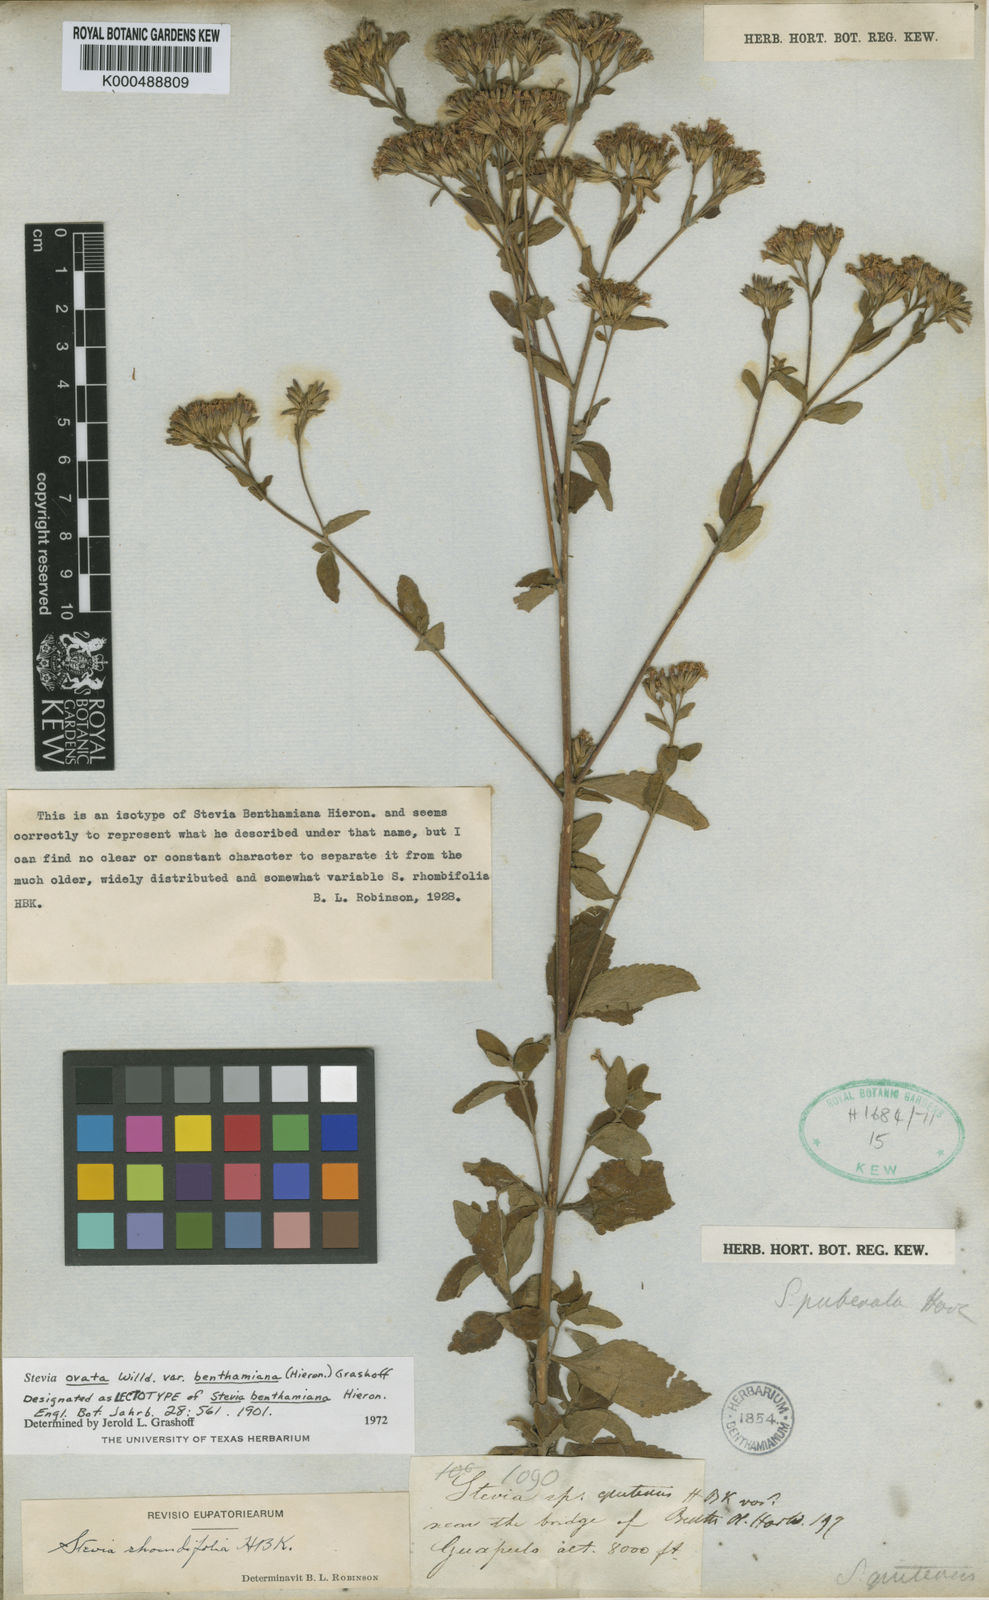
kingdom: Plantae
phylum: Tracheophyta
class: Magnoliopsida
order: Asterales
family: Asteraceae
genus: Stevia
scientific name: Stevia ovata
